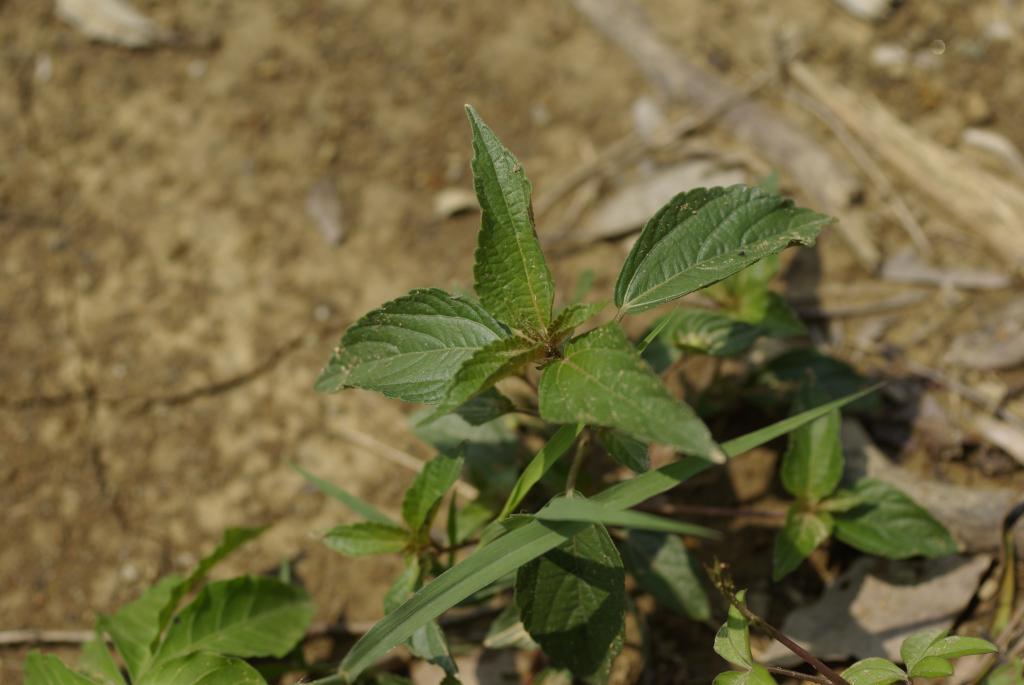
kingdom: Plantae
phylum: Tracheophyta
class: Magnoliopsida
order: Malpighiales
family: Euphorbiaceae
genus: Acalypha
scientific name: Acalypha australis
